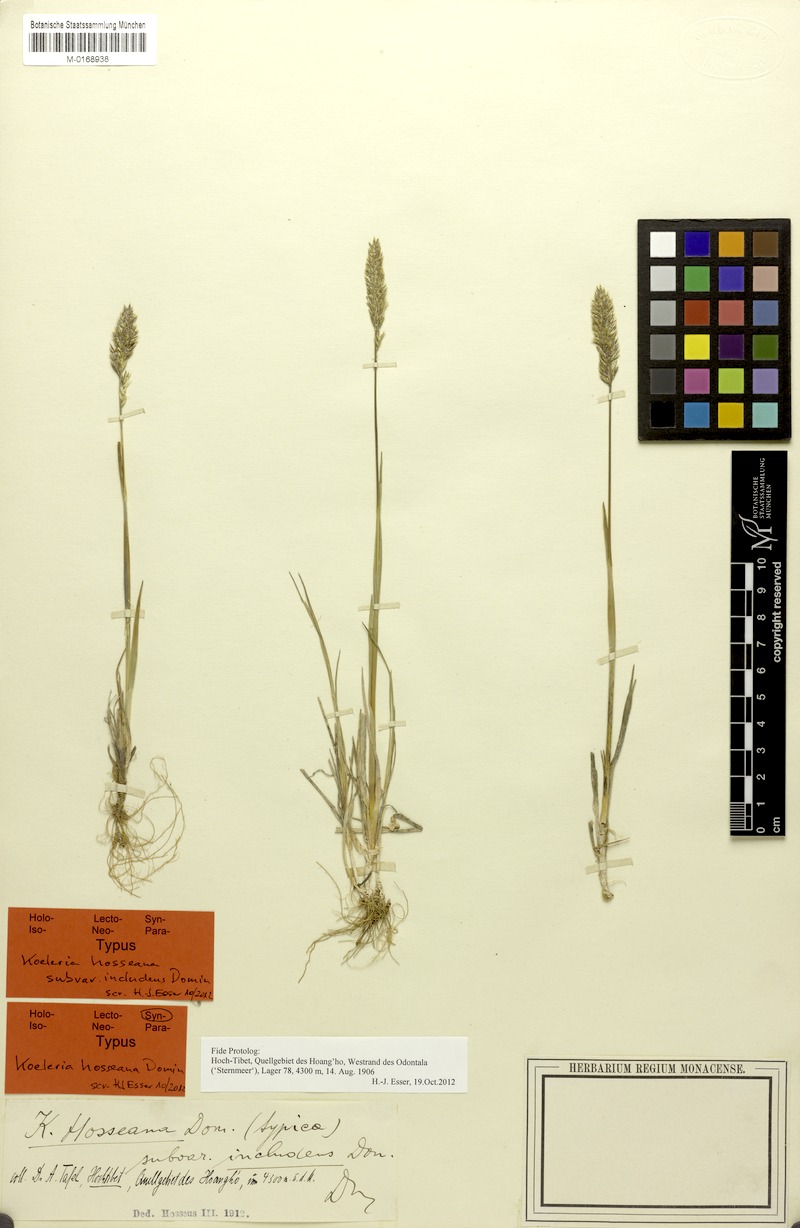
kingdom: Plantae
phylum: Tracheophyta
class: Liliopsida
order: Poales
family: Poaceae
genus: Koeleria
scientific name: Koeleria argentea
